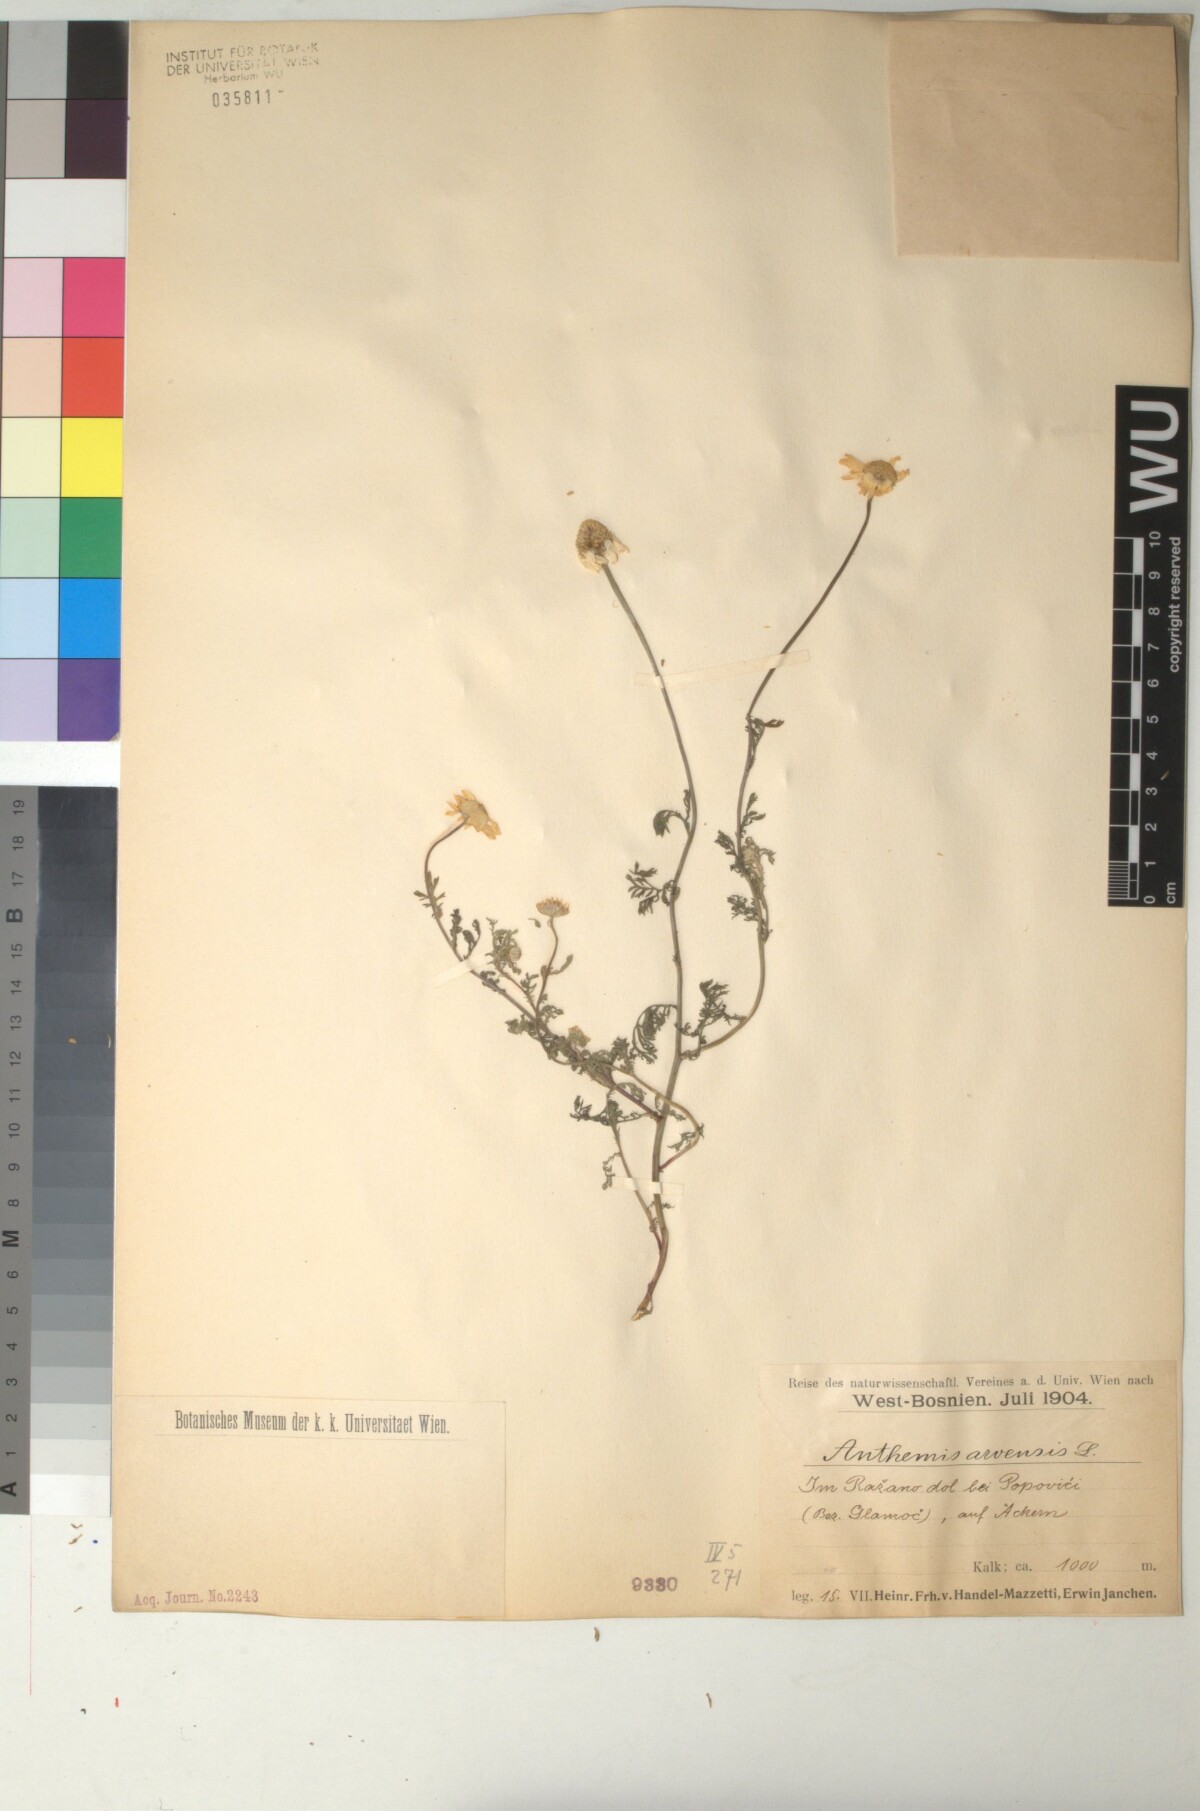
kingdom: Plantae
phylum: Tracheophyta
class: Magnoliopsida
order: Asterales
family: Asteraceae
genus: Anthemis
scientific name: Anthemis arvensis
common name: Corn chamomile
